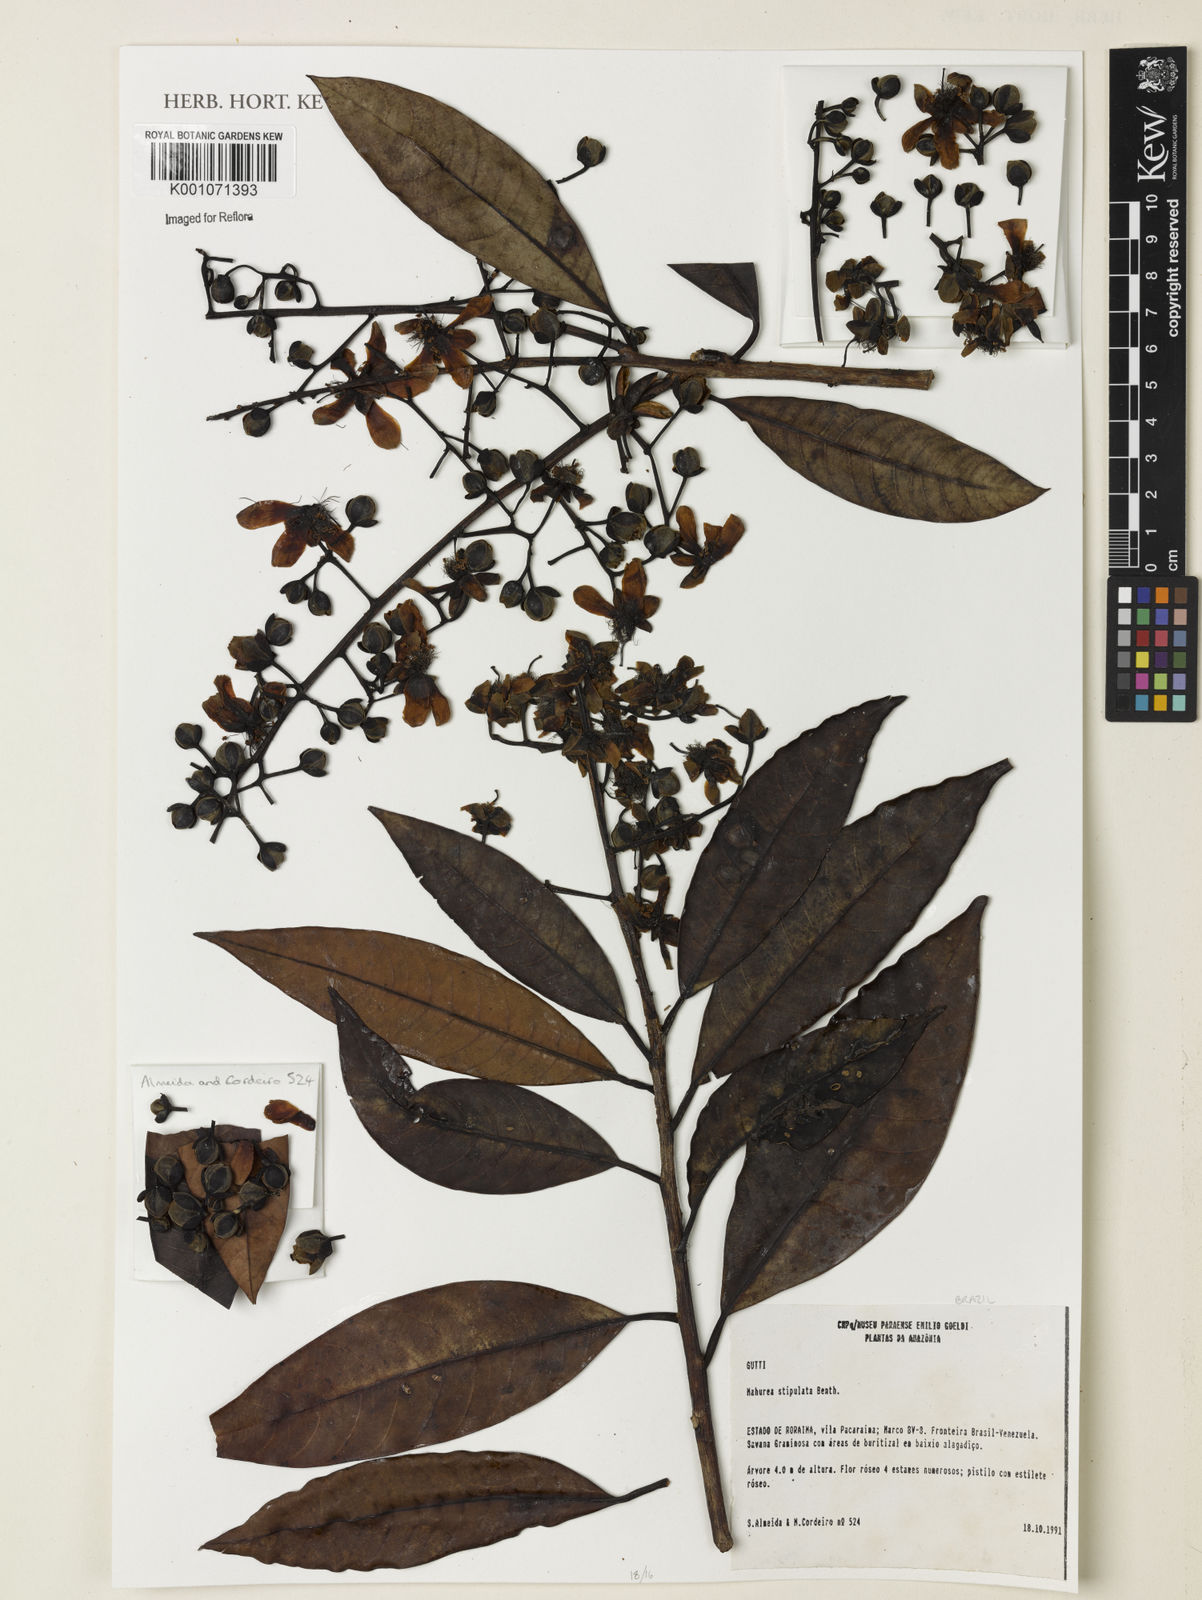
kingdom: Plantae
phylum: Tracheophyta
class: Magnoliopsida
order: Malpighiales
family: Calophyllaceae
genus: Mahurea
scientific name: Mahurea exstipulata
